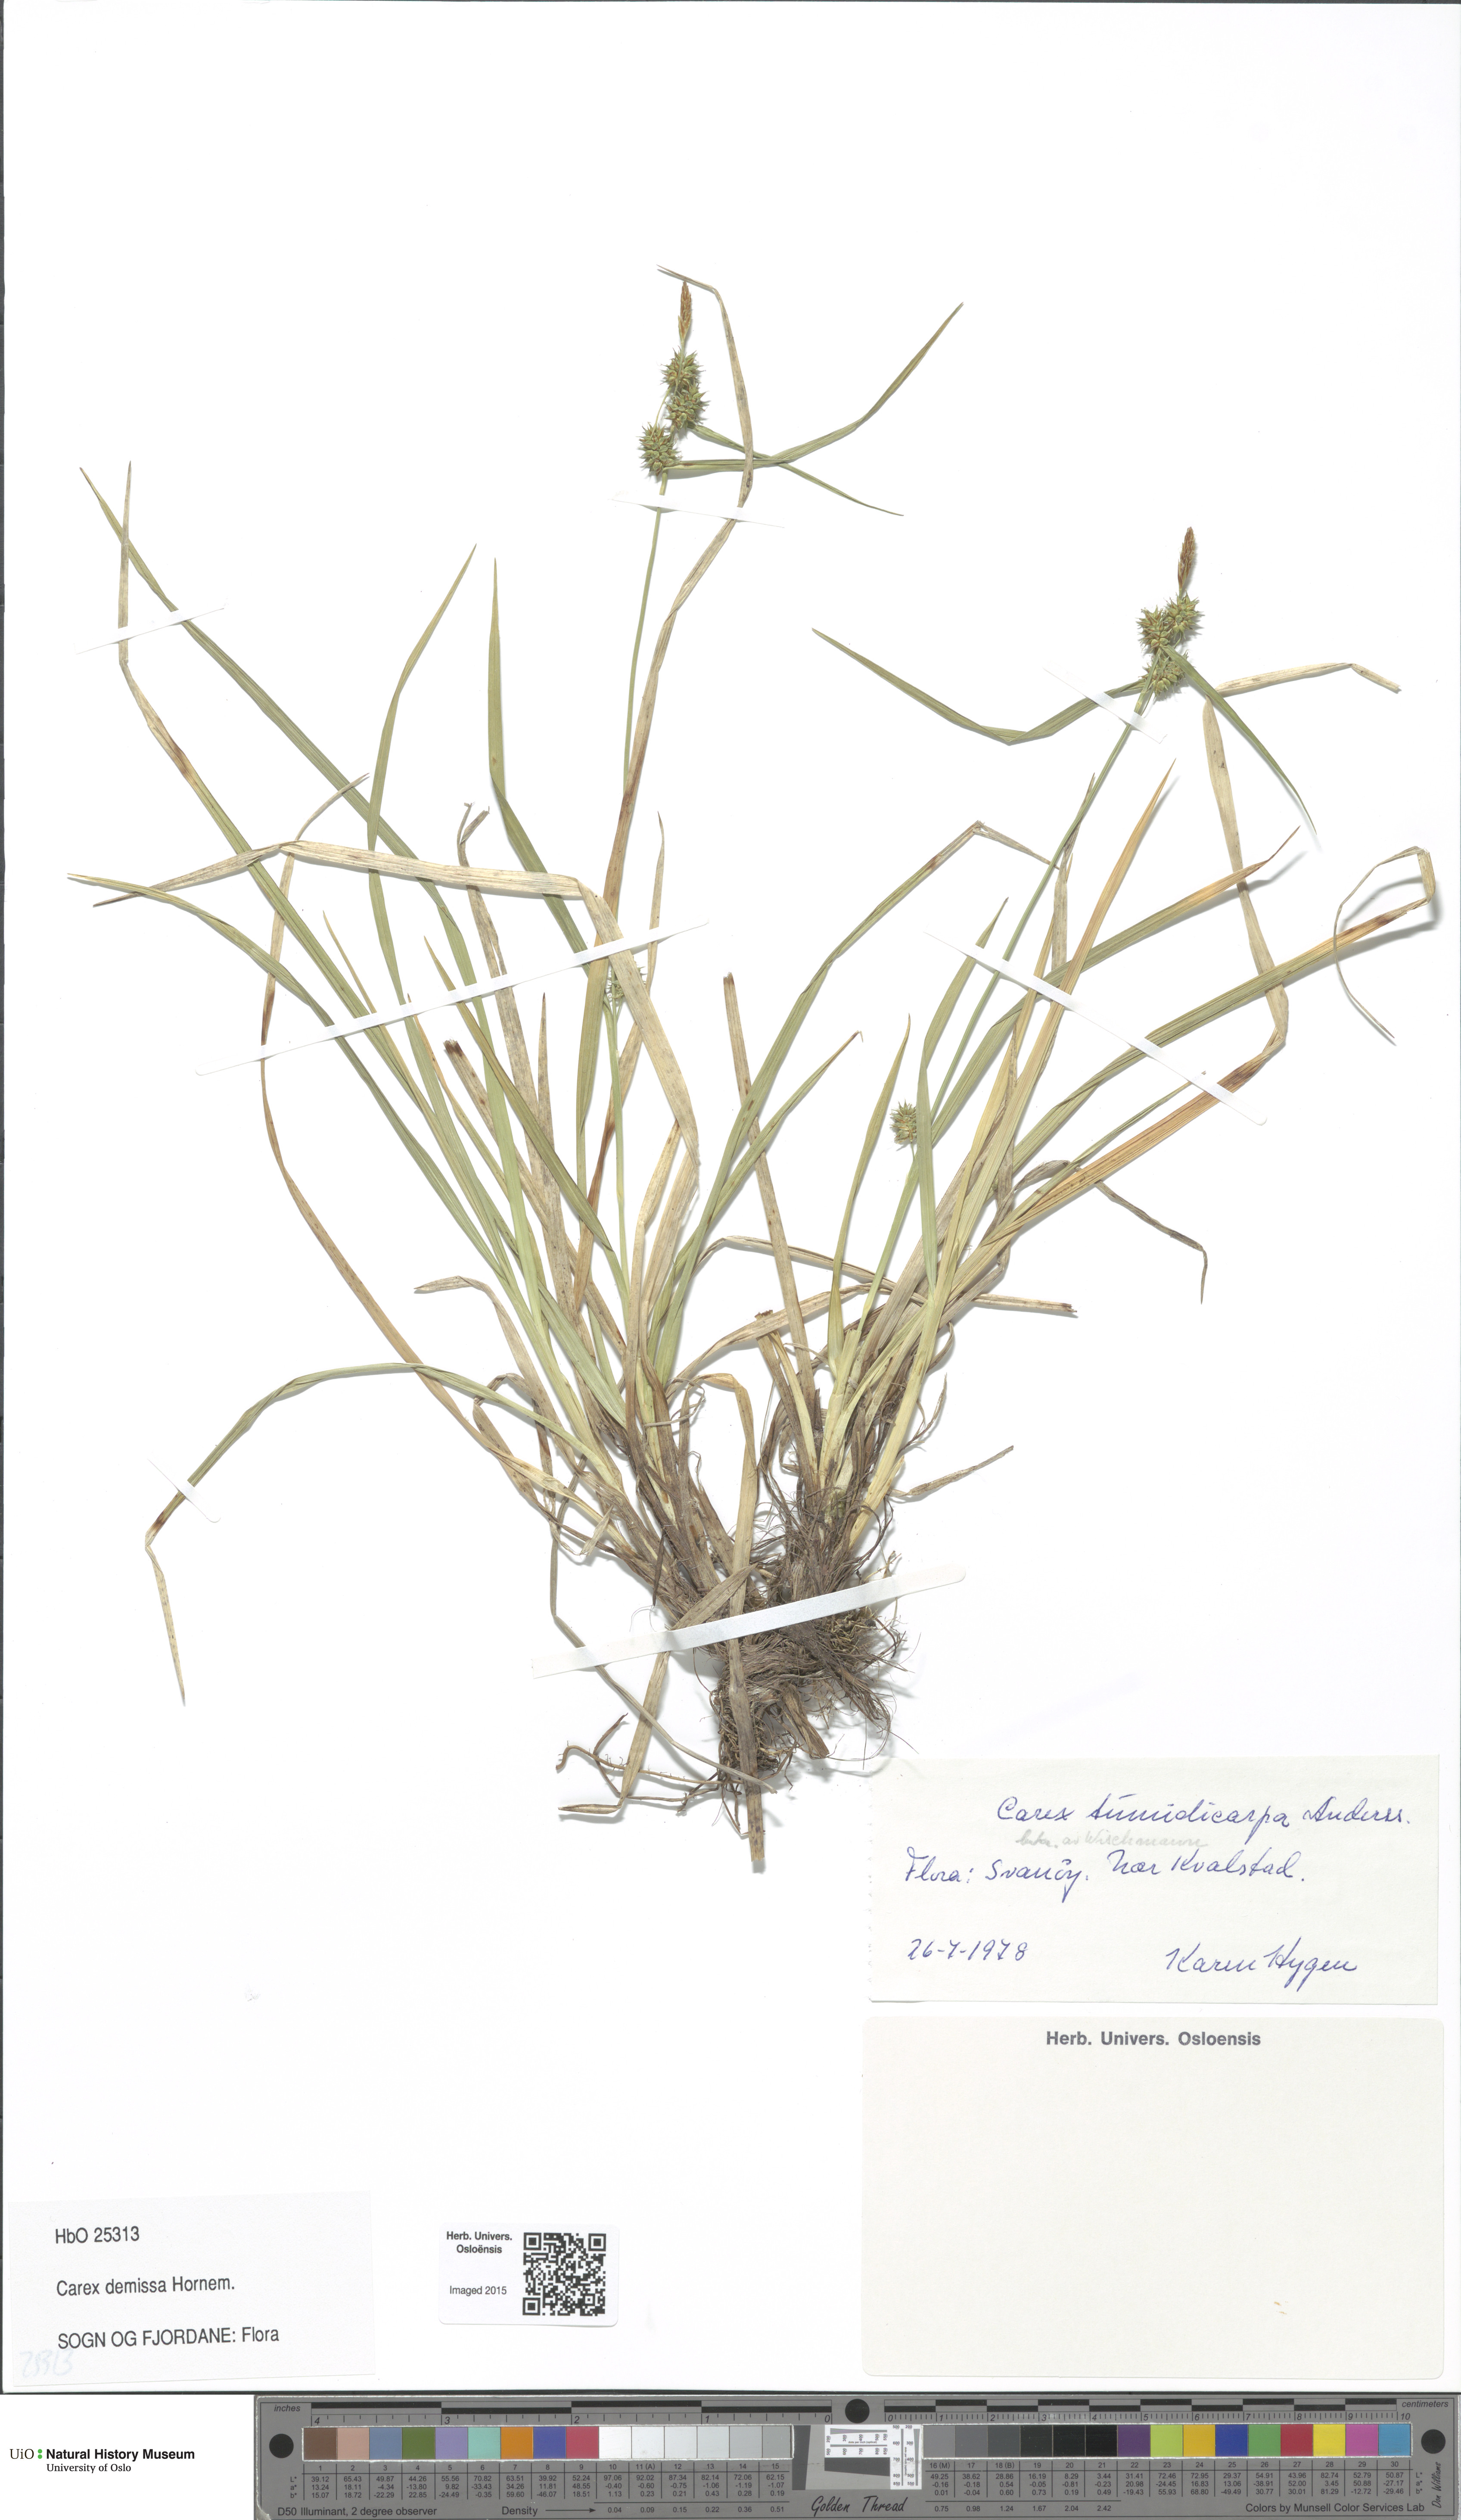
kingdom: Plantae
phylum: Tracheophyta
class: Liliopsida
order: Poales
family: Cyperaceae
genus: Carex
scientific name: Carex demissa
